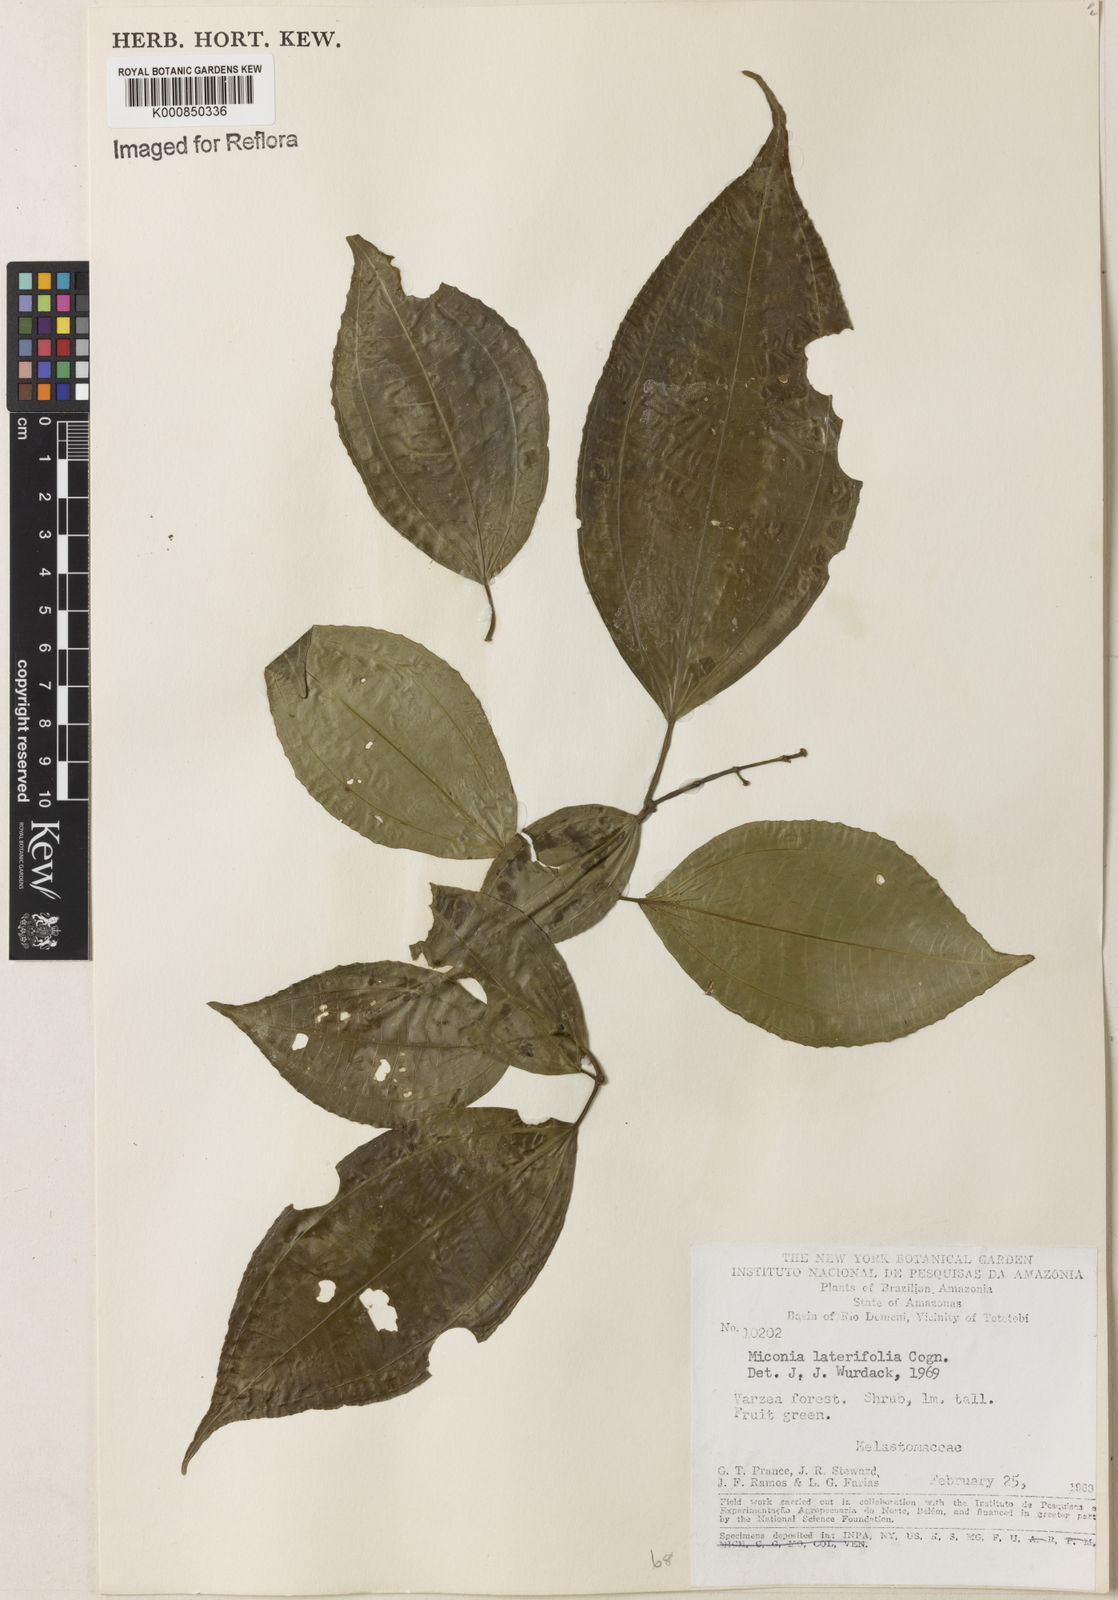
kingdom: Plantae
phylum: Tracheophyta
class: Magnoliopsida
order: Myrtales
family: Melastomataceae
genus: Miconia
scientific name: Miconia lateriflora
